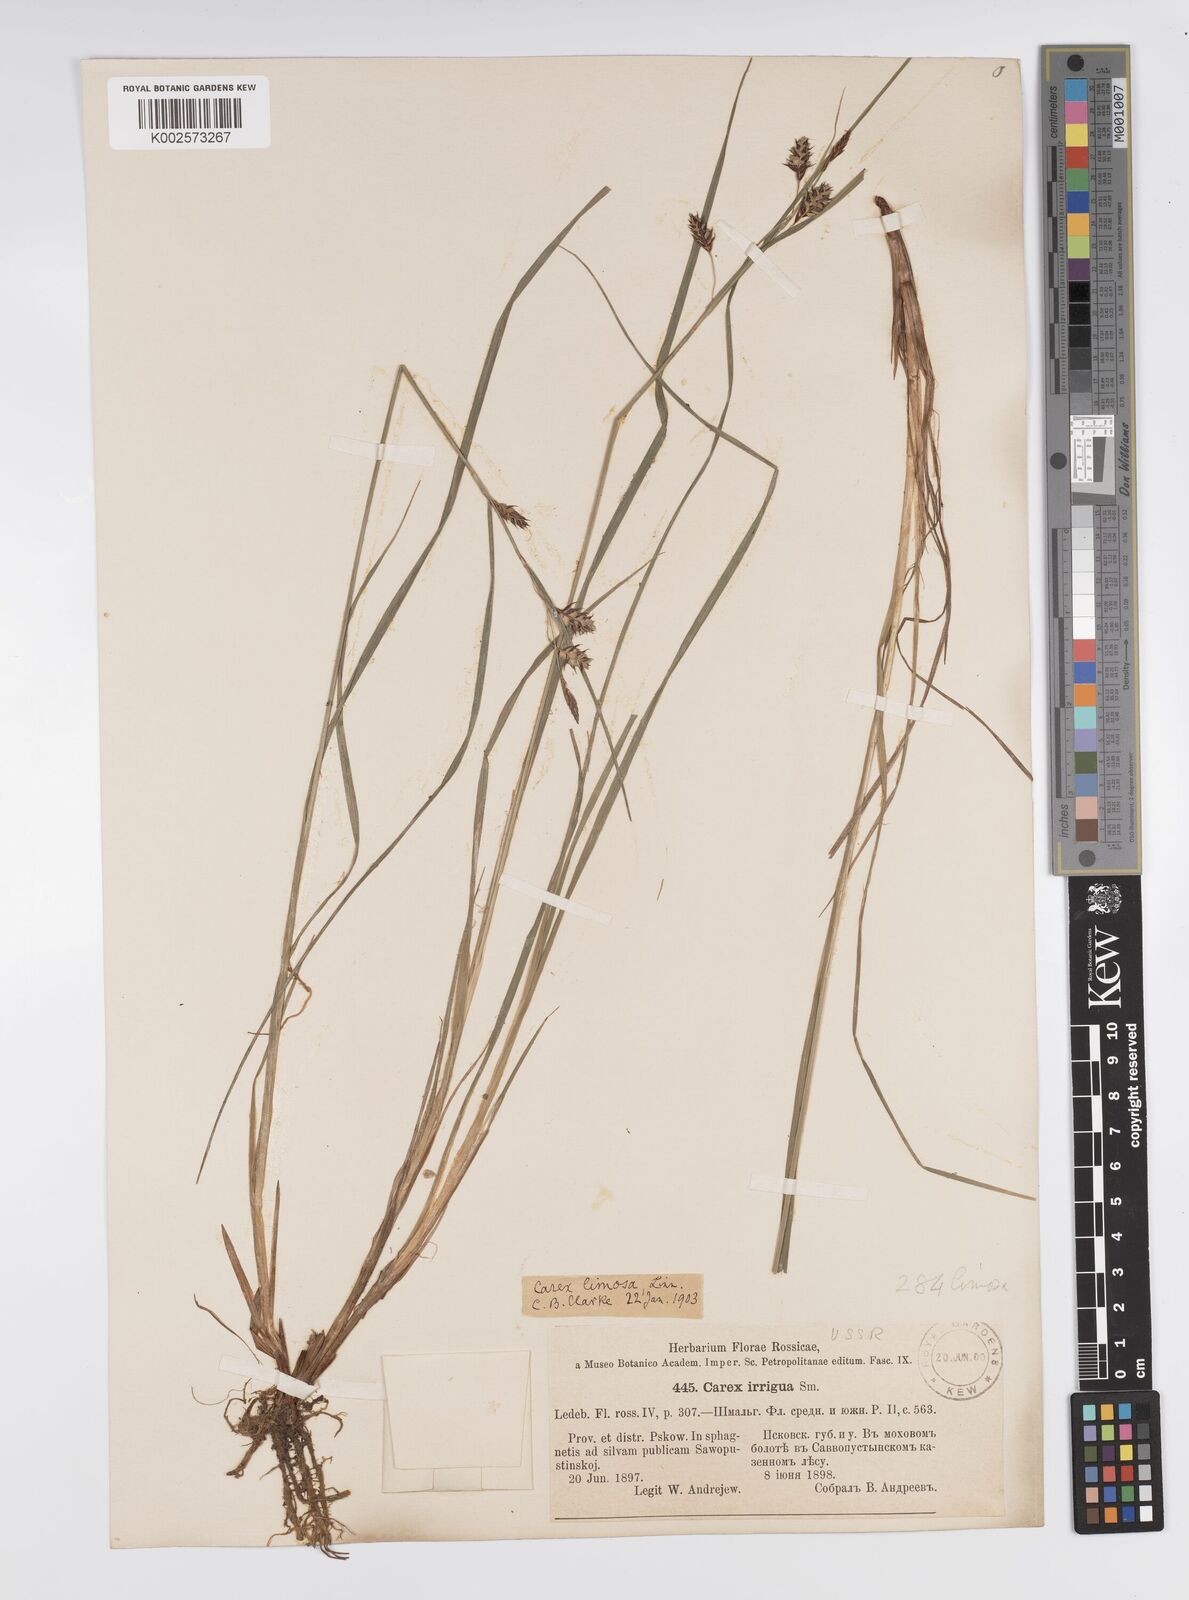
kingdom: Plantae
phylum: Tracheophyta
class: Liliopsida
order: Poales
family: Cyperaceae
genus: Carex
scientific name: Carex magellanica
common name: Bog sedge
